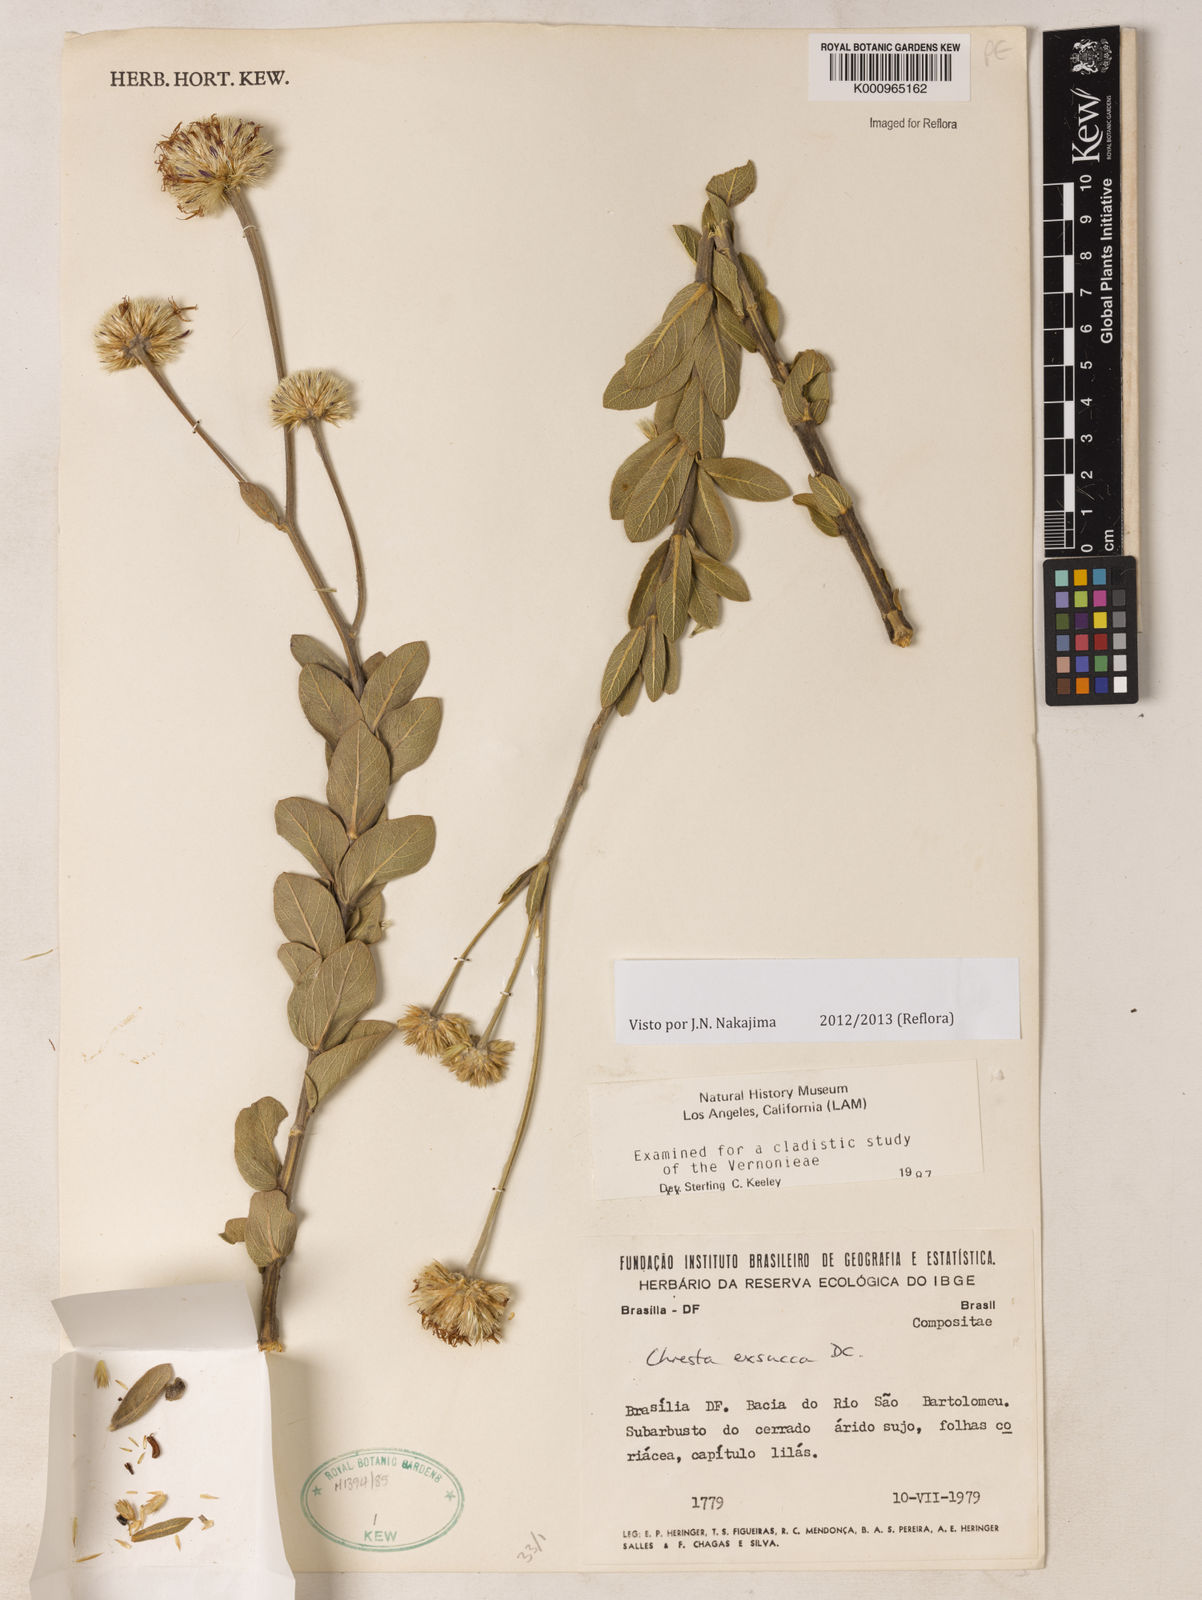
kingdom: Plantae
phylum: Tracheophyta
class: Magnoliopsida
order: Asterales
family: Asteraceae
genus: Chresta
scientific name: Chresta exsucca
